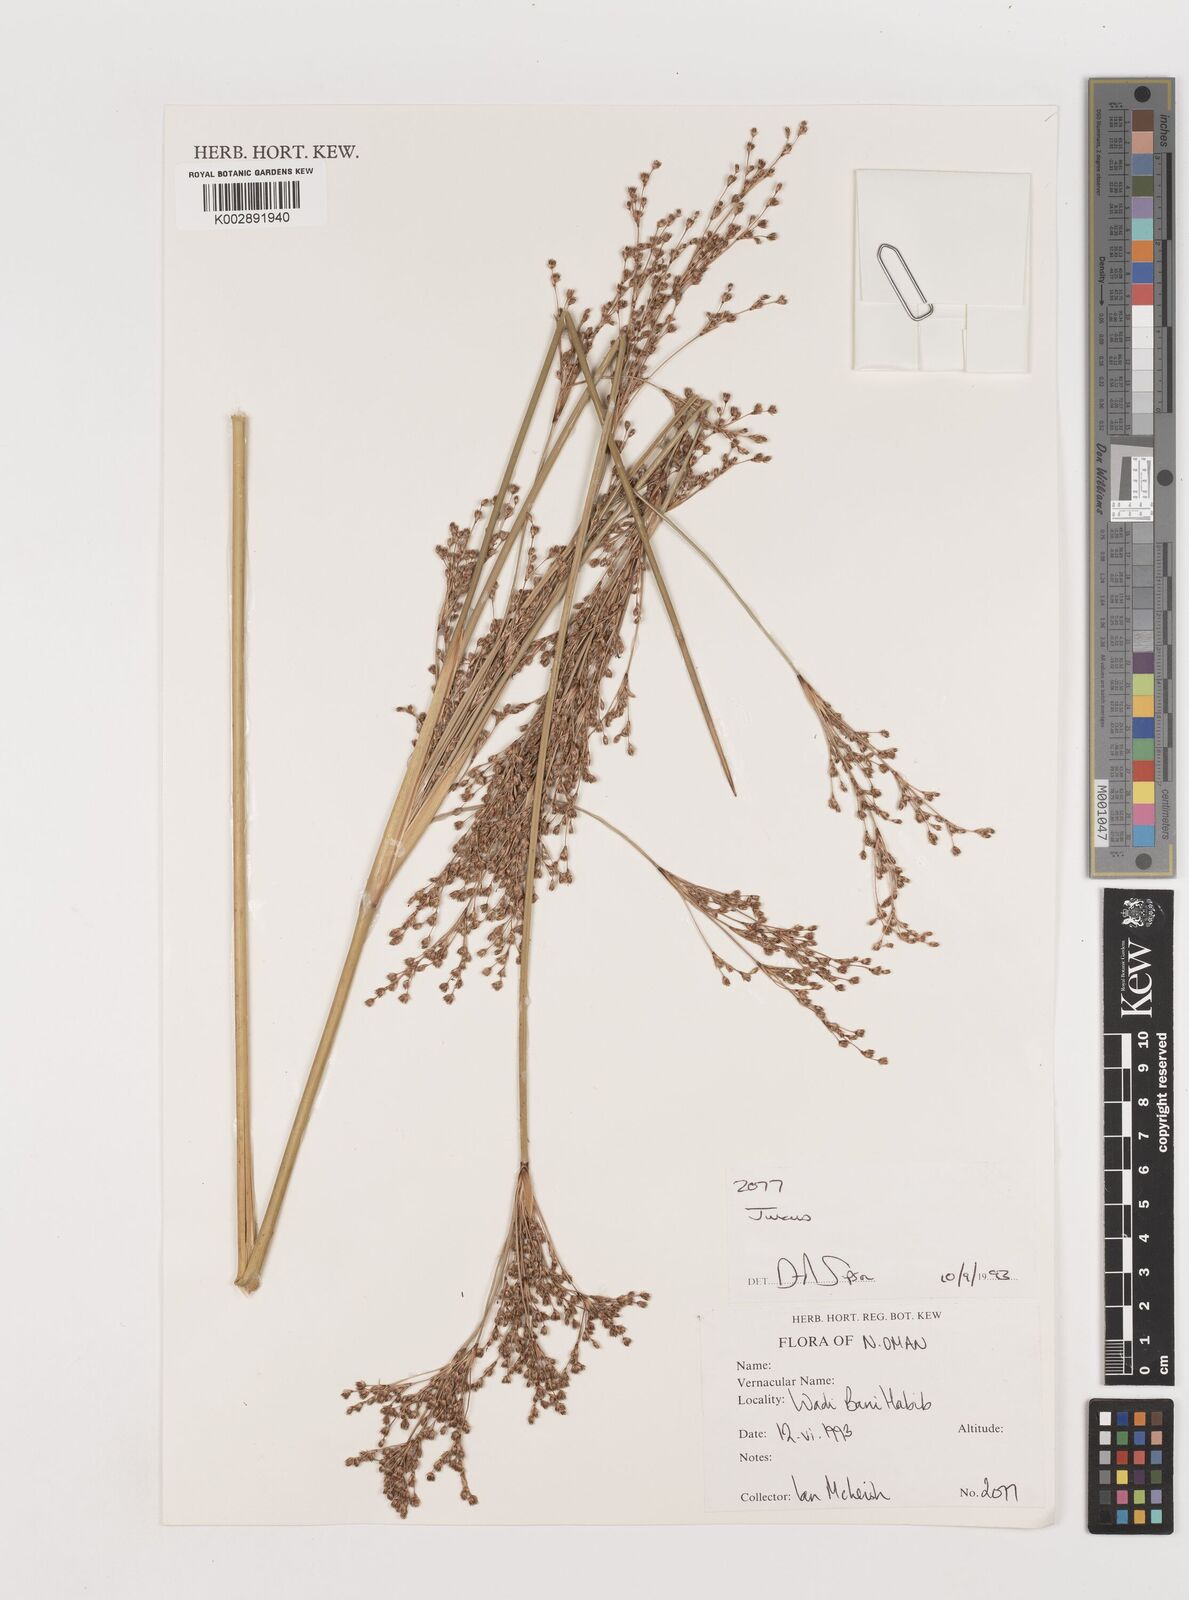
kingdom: Plantae
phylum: Tracheophyta
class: Liliopsida
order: Poales
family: Juncaceae
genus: Juncus
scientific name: Juncus
